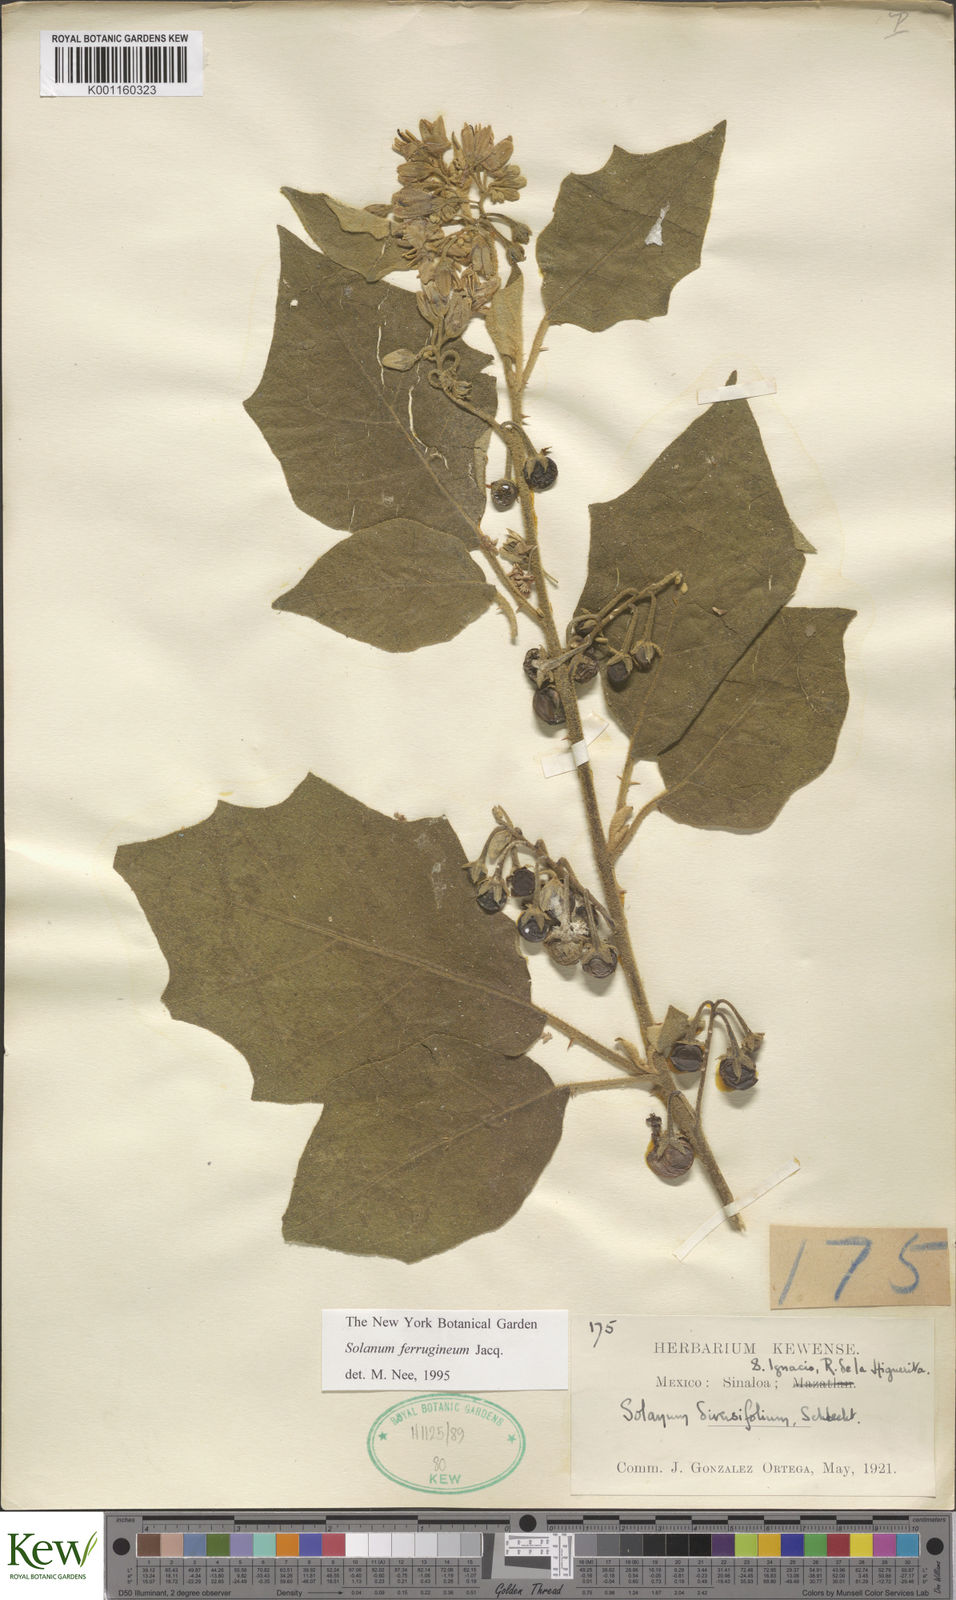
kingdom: Plantae
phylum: Tracheophyta
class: Magnoliopsida
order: Solanales
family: Solanaceae
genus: Solanum
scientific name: Solanum ferrugineum
